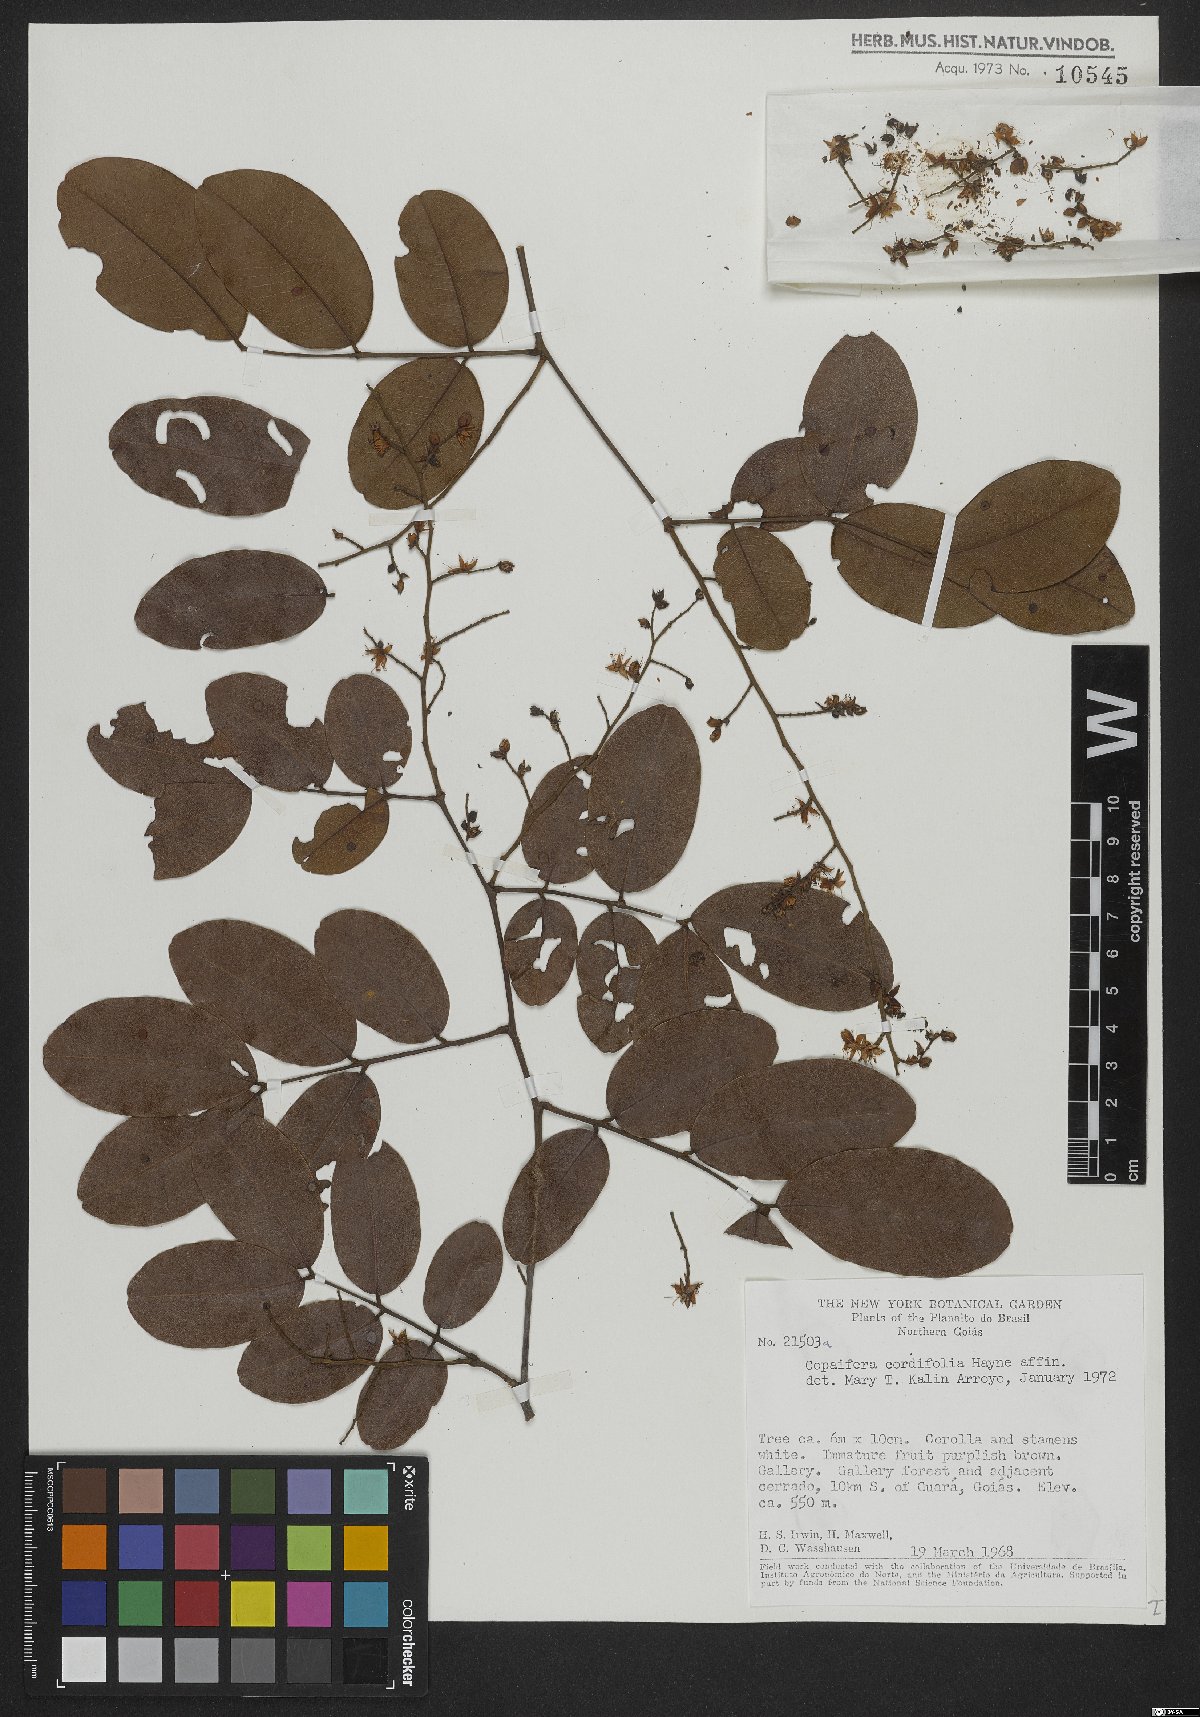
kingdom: Plantae
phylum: Tracheophyta
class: Magnoliopsida
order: Fabales
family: Fabaceae
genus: Copaifera
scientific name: Copaifera coriacea
